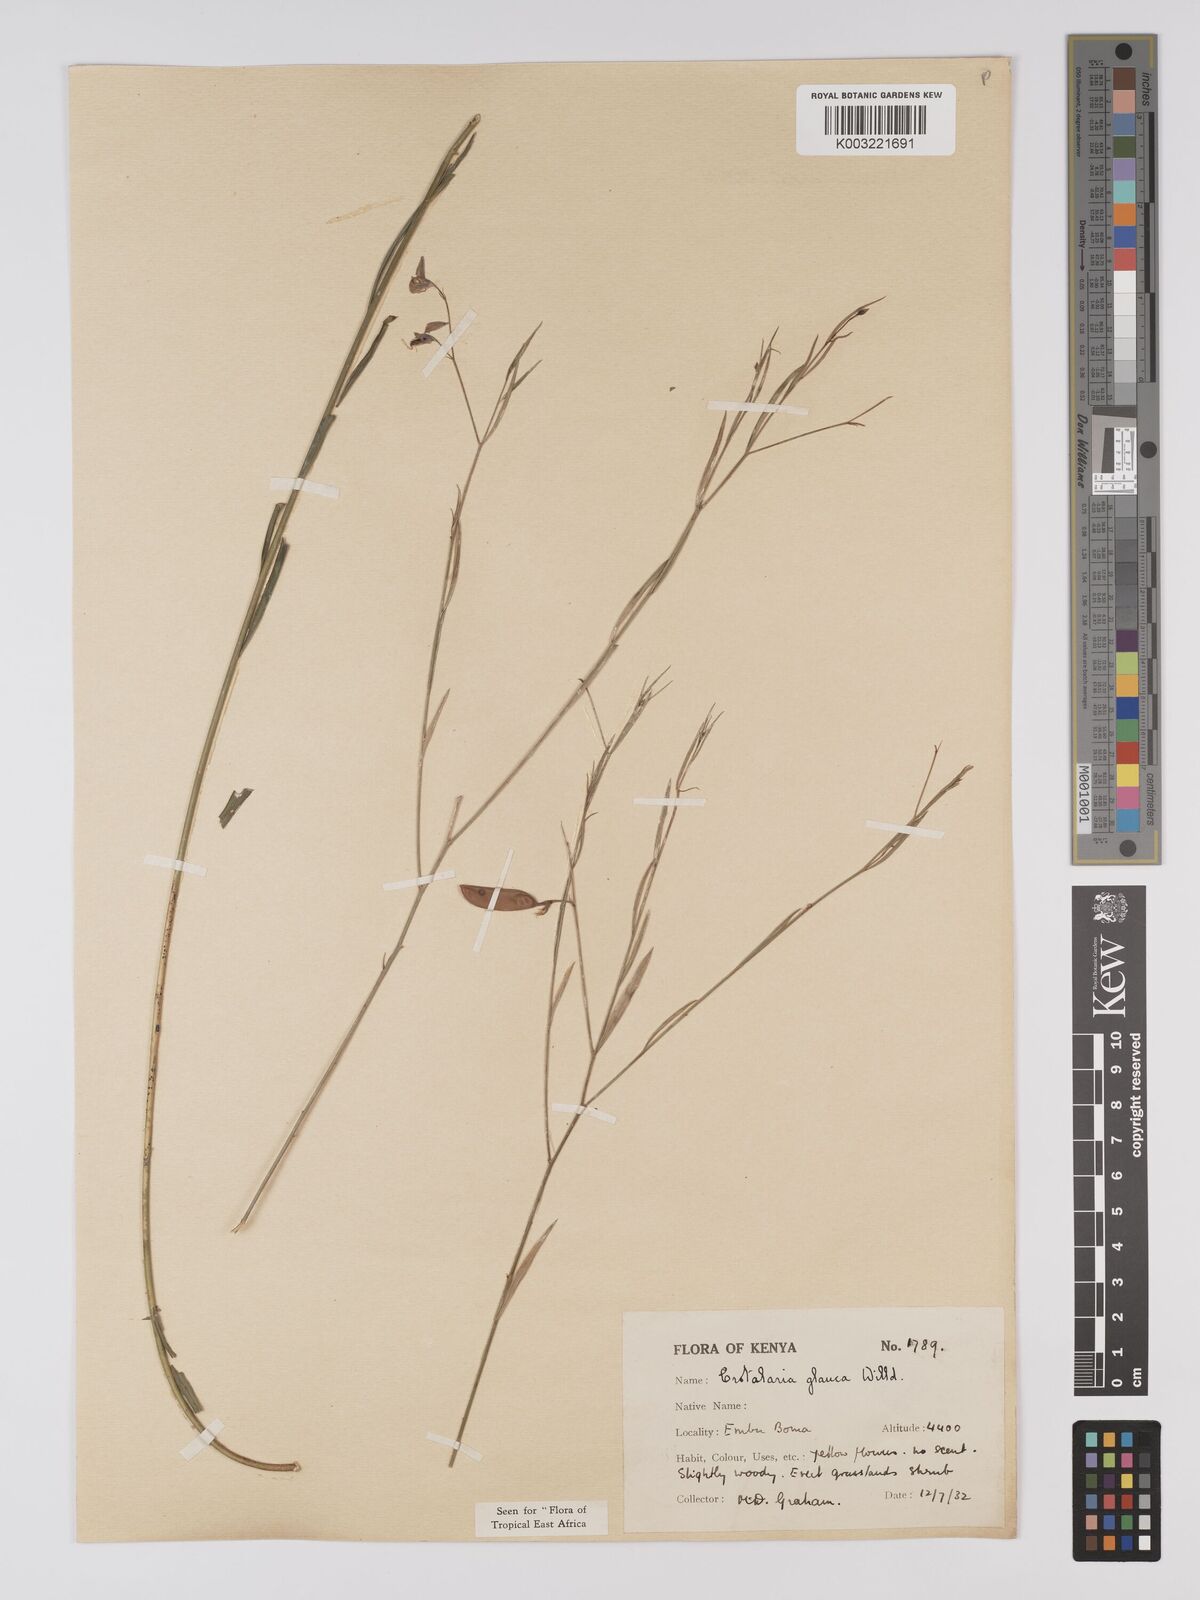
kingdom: Plantae
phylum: Tracheophyta
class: Magnoliopsida
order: Fabales
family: Fabaceae
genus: Crotalaria
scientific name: Crotalaria glauca
